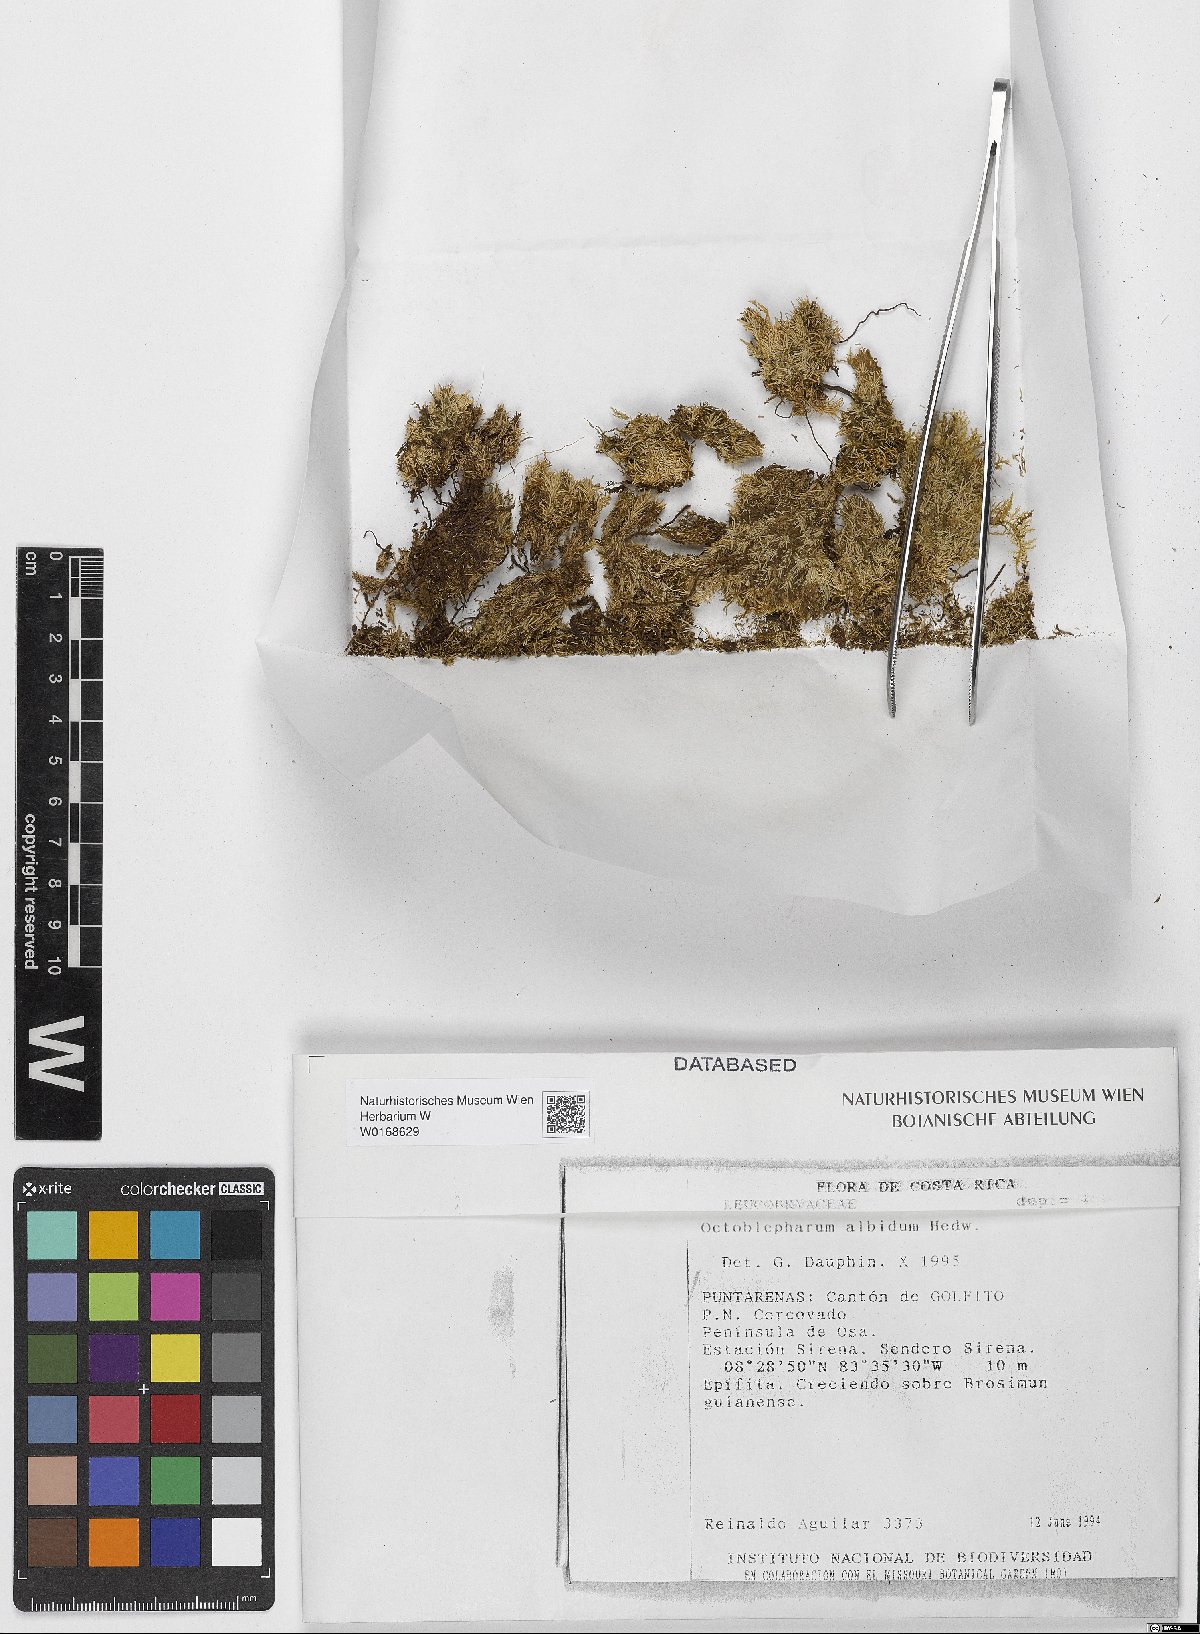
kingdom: Plantae
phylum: Bryophyta
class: Bryopsida
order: Dicranales
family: Octoblepharaceae
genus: Octoblepharum
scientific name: Octoblepharum albidum
